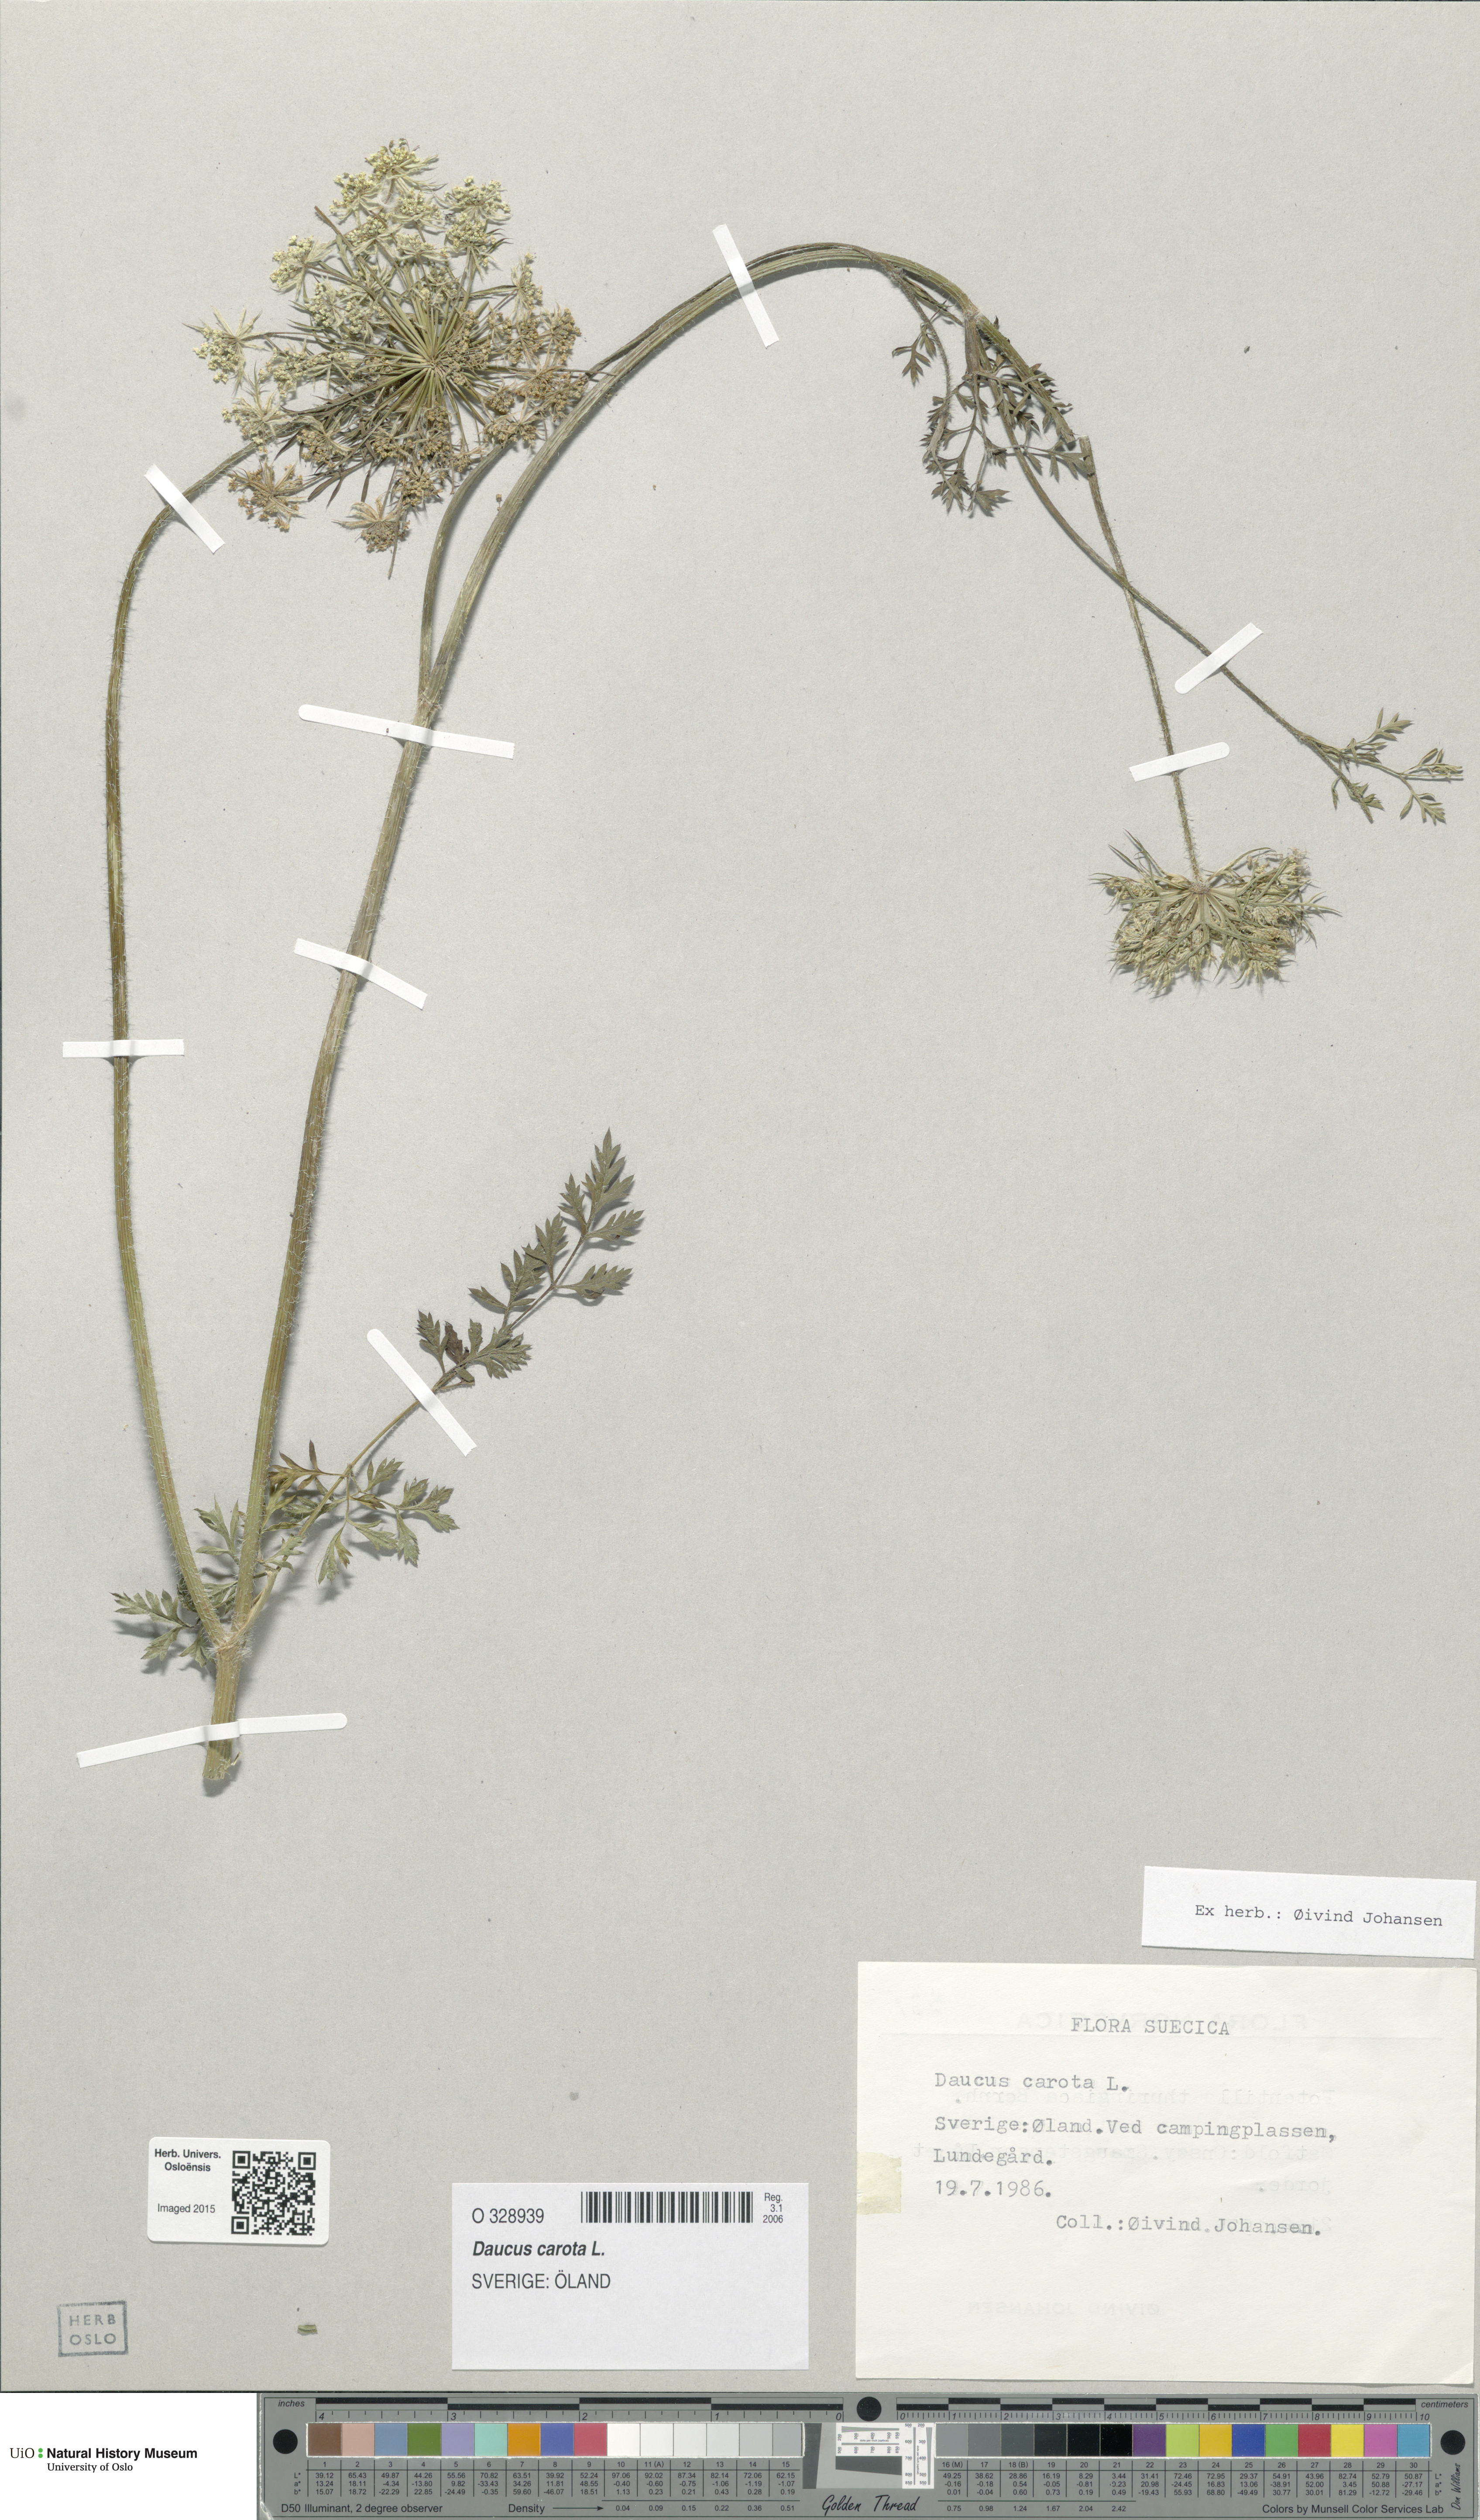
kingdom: Plantae
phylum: Tracheophyta
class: Magnoliopsida
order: Apiales
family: Apiaceae
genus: Daucus
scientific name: Daucus carota
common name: Wild carrot
